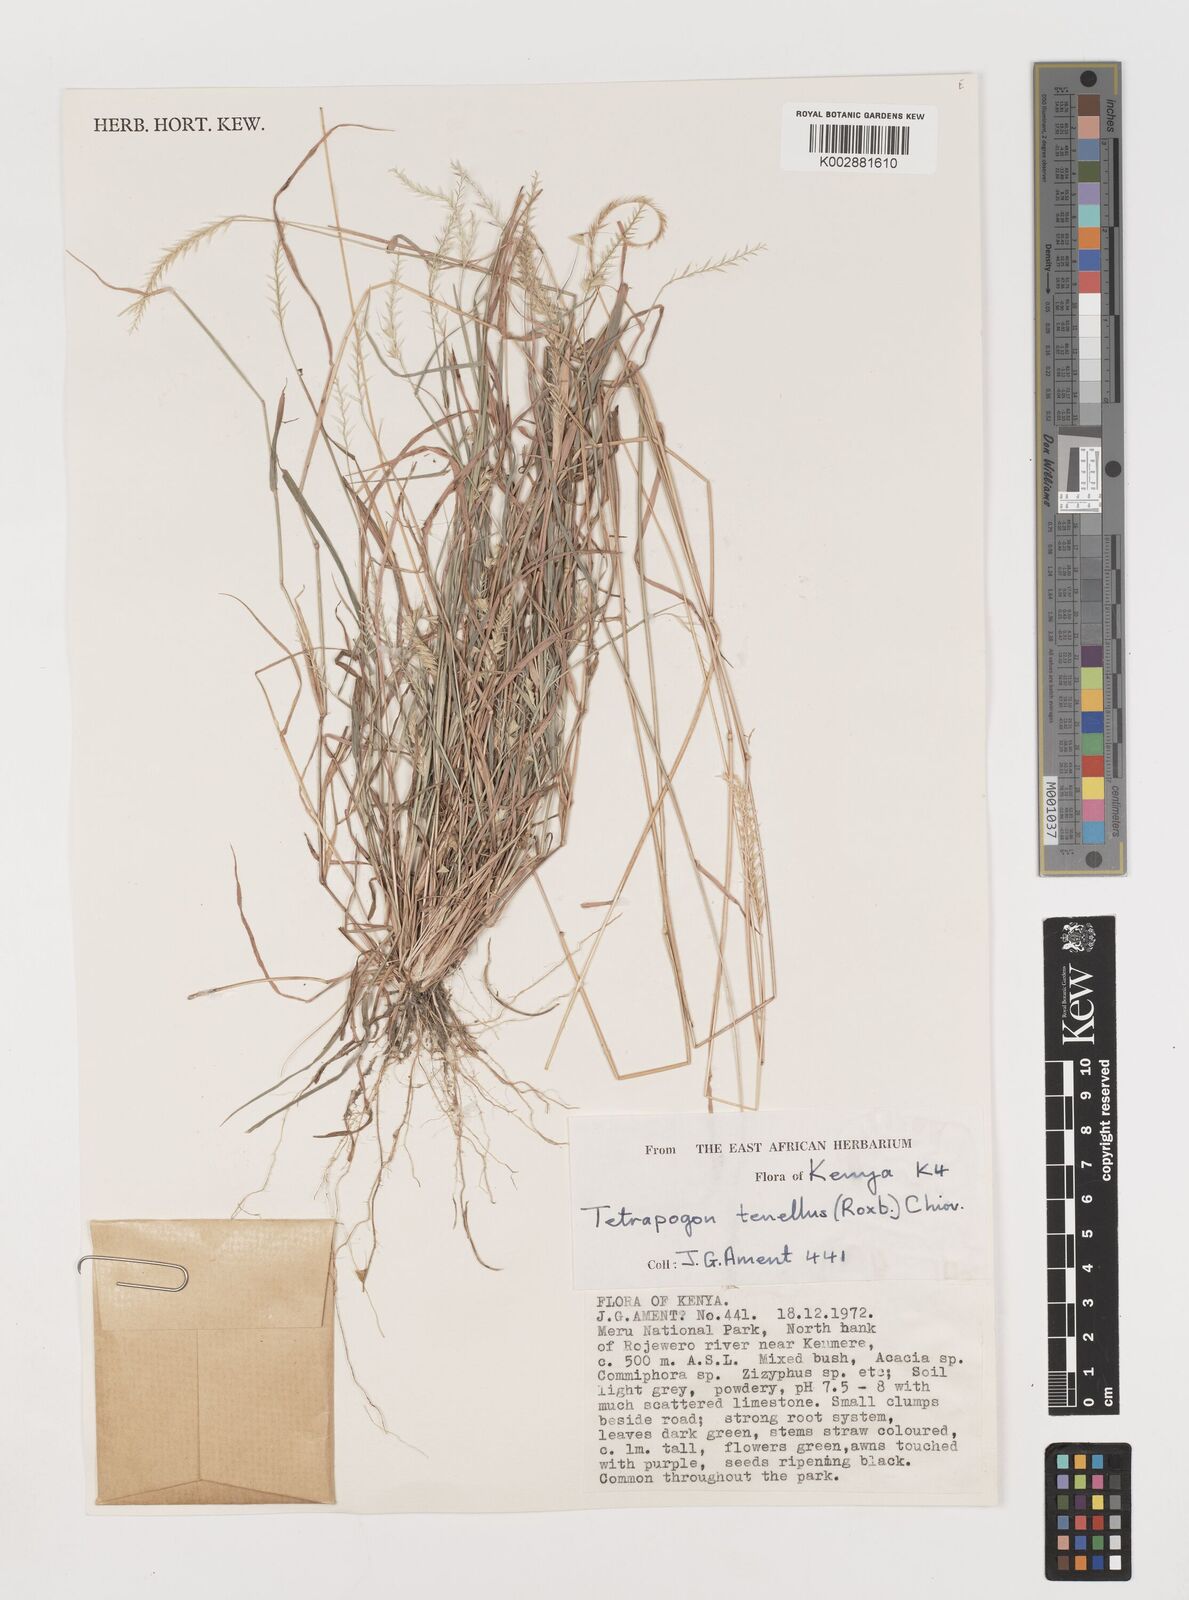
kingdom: Plantae
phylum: Tracheophyta
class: Liliopsida
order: Poales
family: Poaceae
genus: Tetrapogon
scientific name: Tetrapogon tenellus
